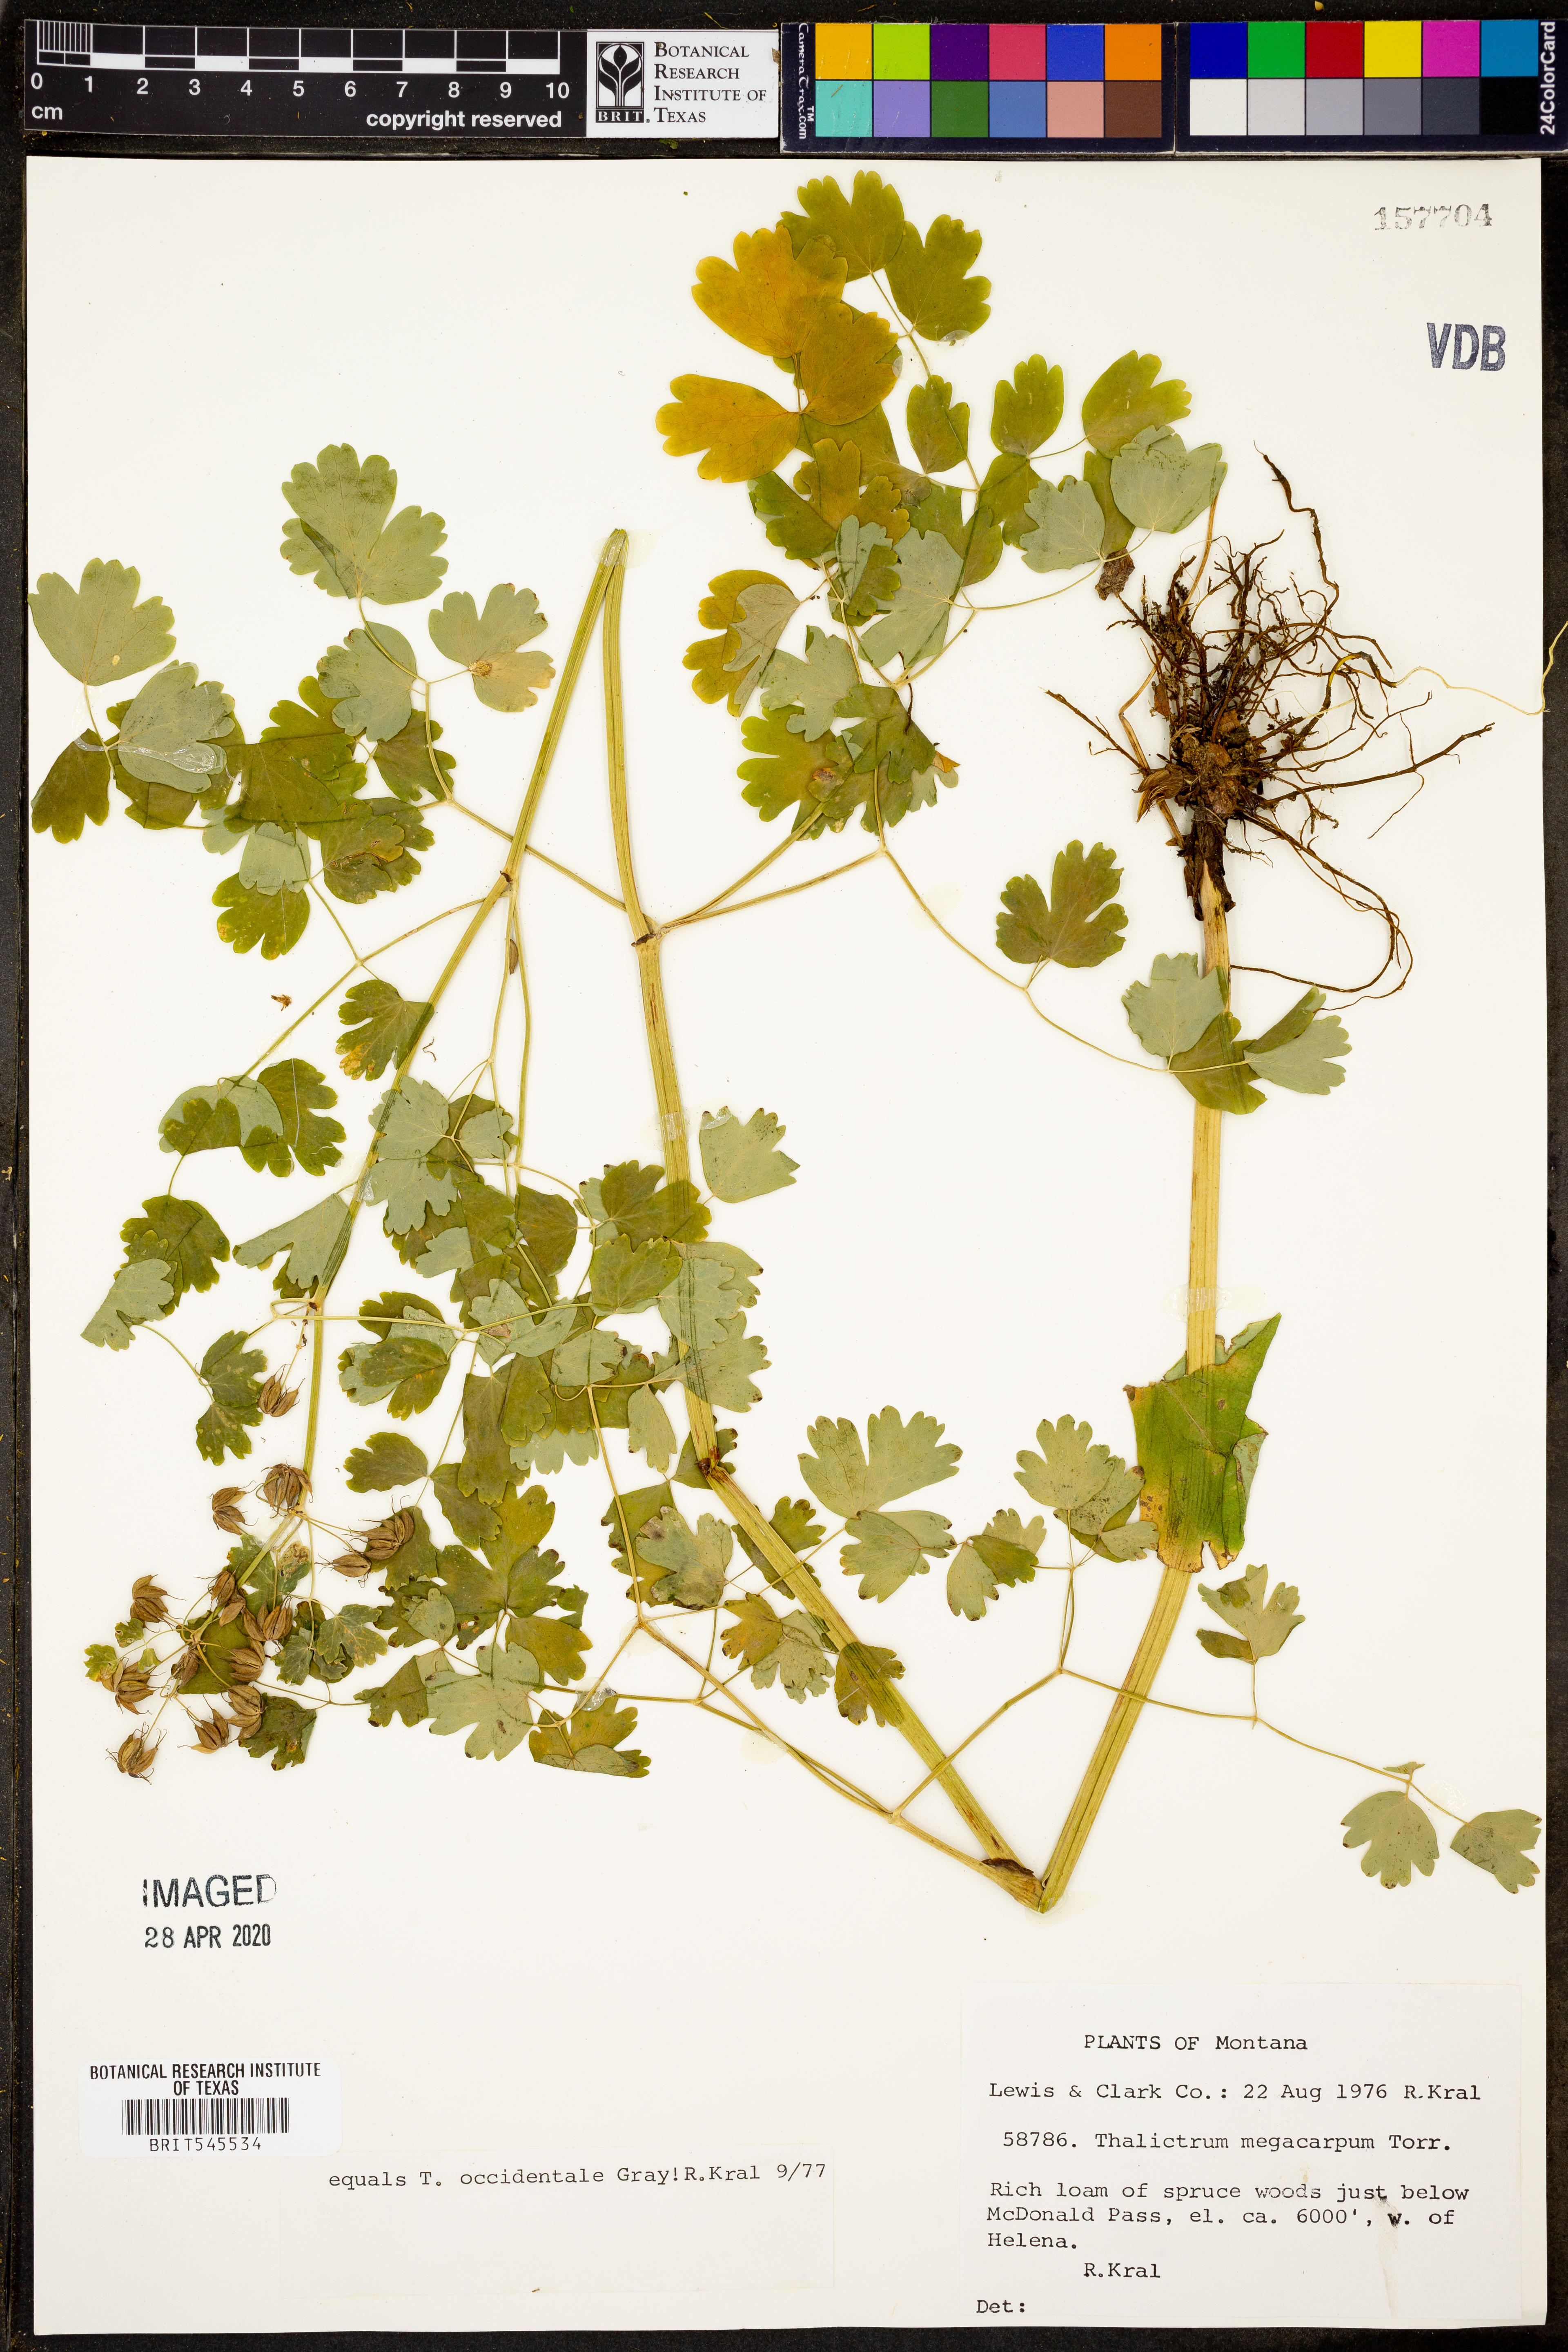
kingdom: Plantae
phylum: Tracheophyta
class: Magnoliopsida
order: Ranunculales
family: Ranunculaceae
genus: Thalictrum
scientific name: Thalictrum occidentale
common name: Western meadow-rue
